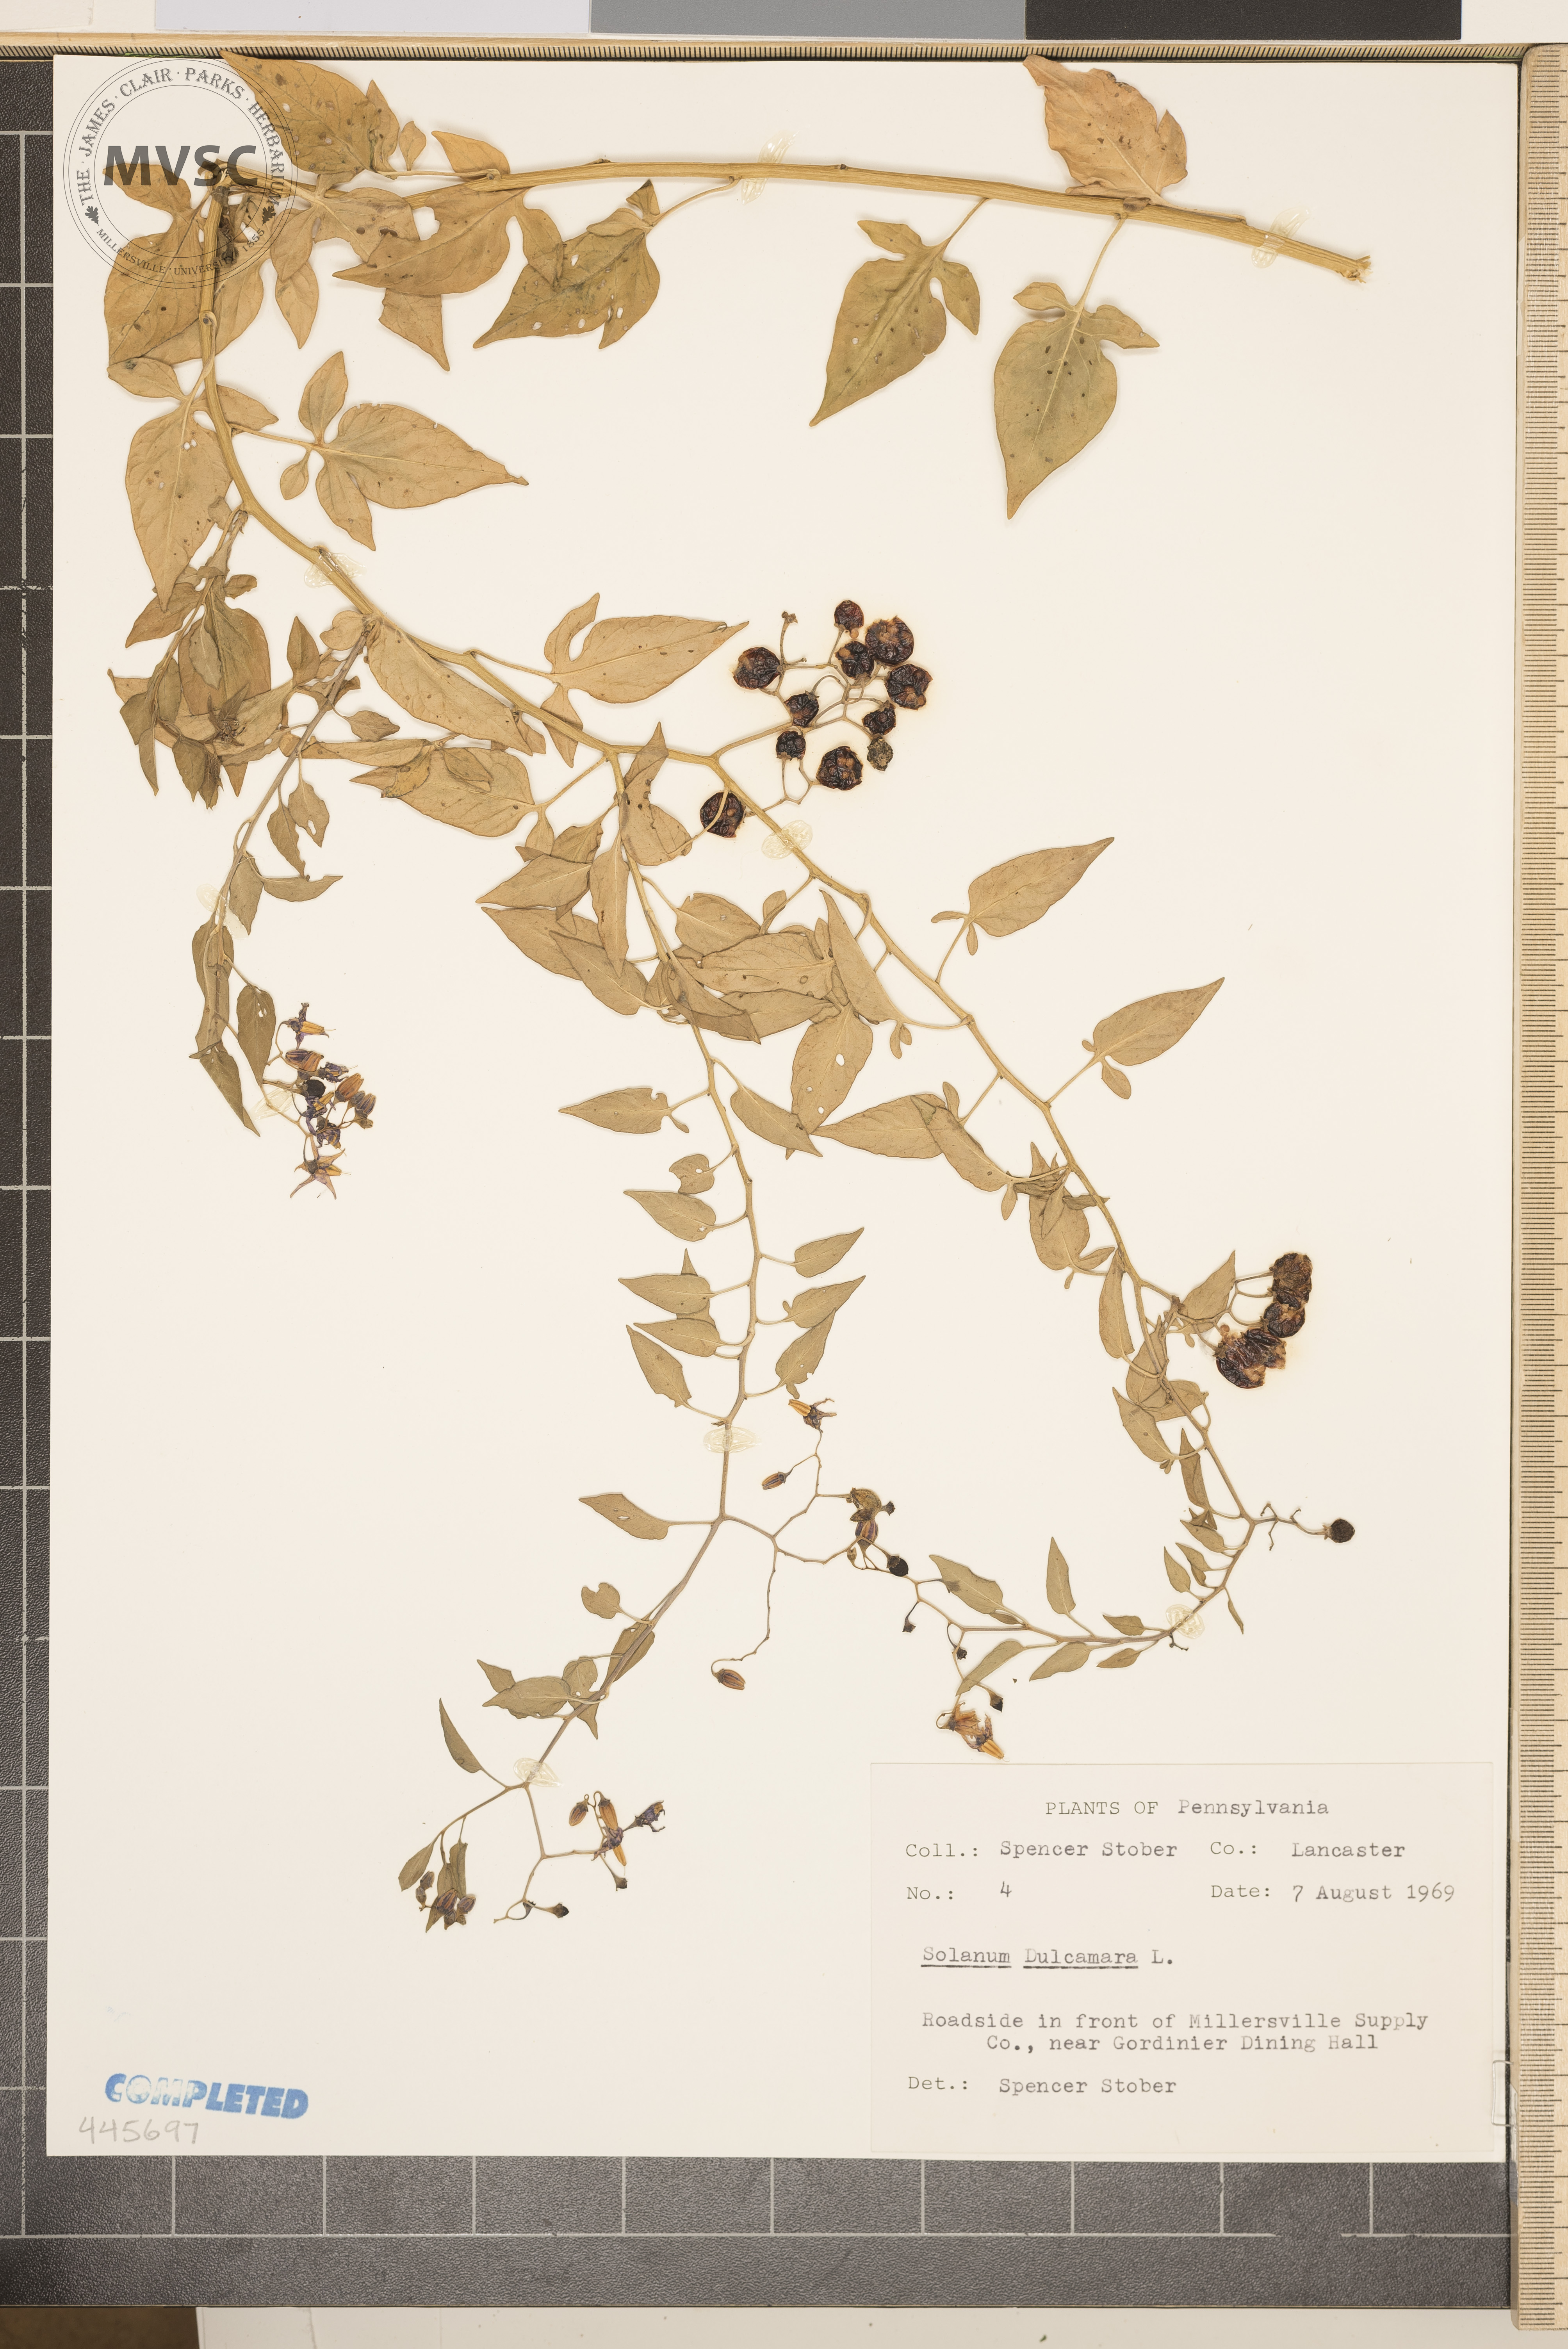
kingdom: Plantae
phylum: Tracheophyta
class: Magnoliopsida
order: Solanales
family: Solanaceae
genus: Solanum
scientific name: Solanum dulcamara
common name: Climbing nightshade
